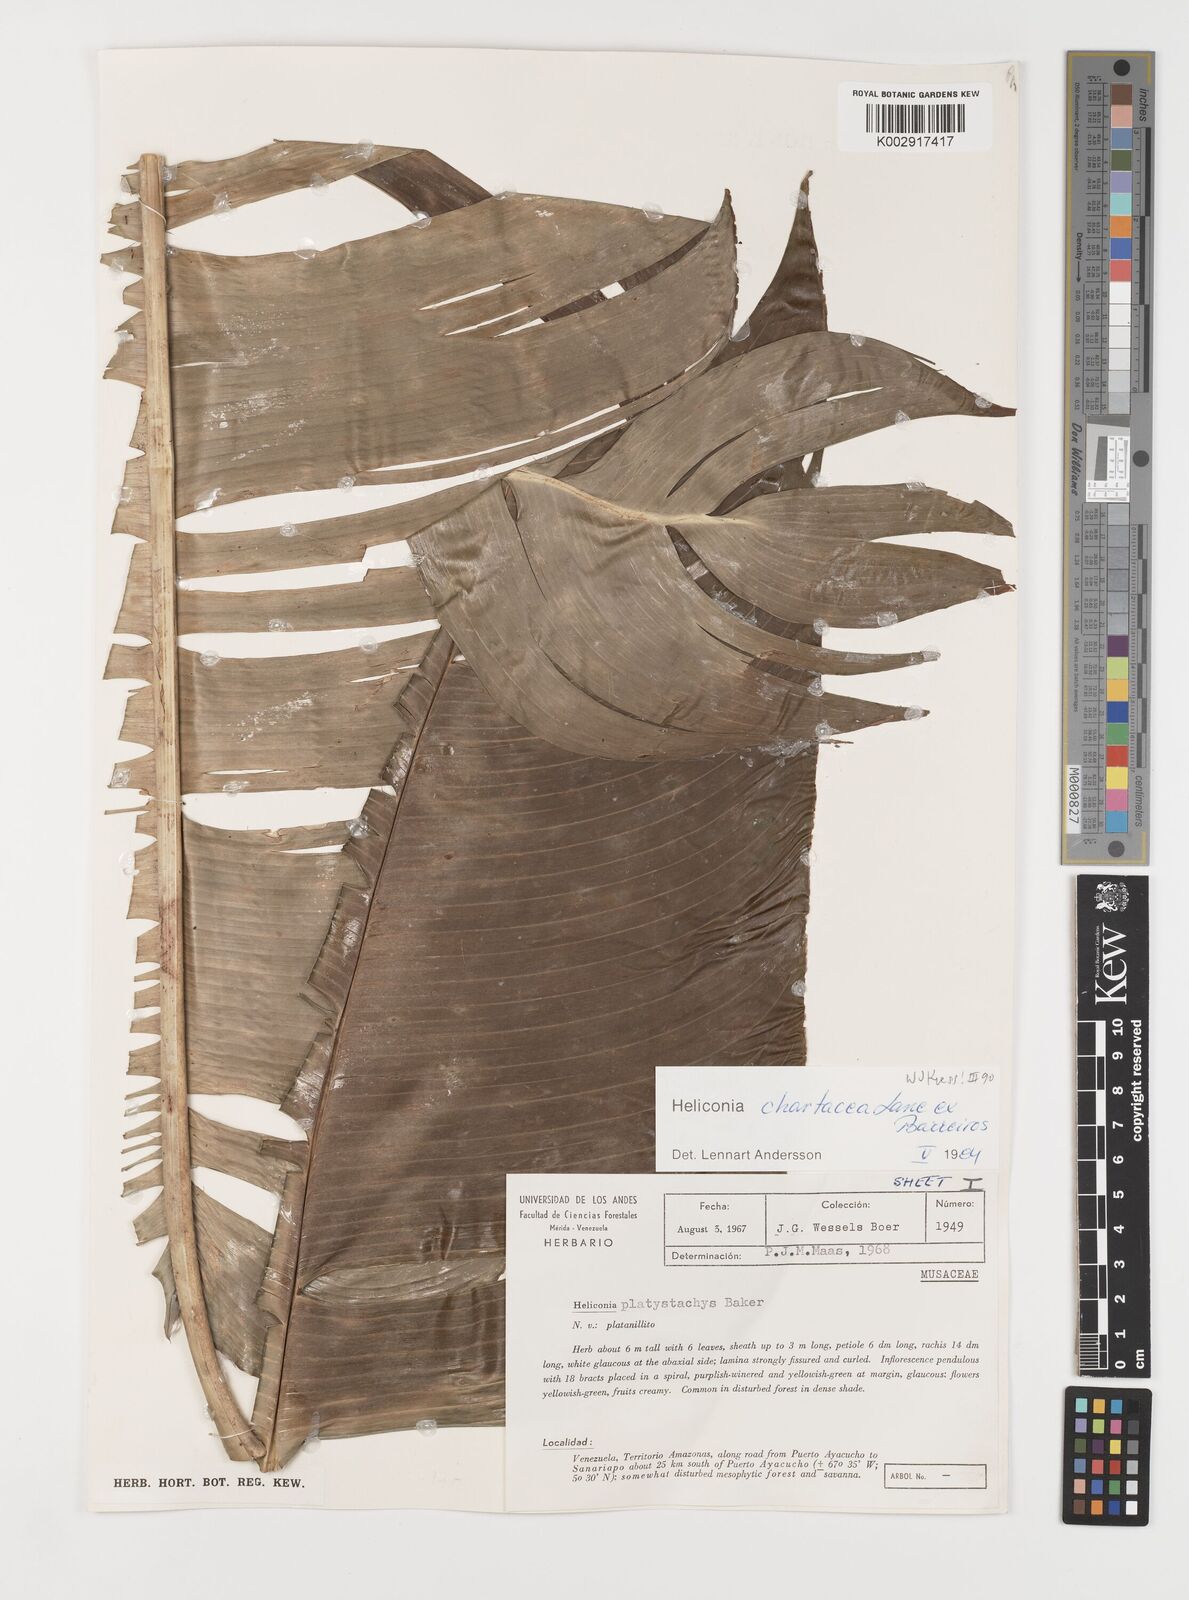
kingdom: Plantae
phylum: Tracheophyta
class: Liliopsida
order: Zingiberales
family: Heliconiaceae
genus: Heliconia
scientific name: Heliconia chartacea
